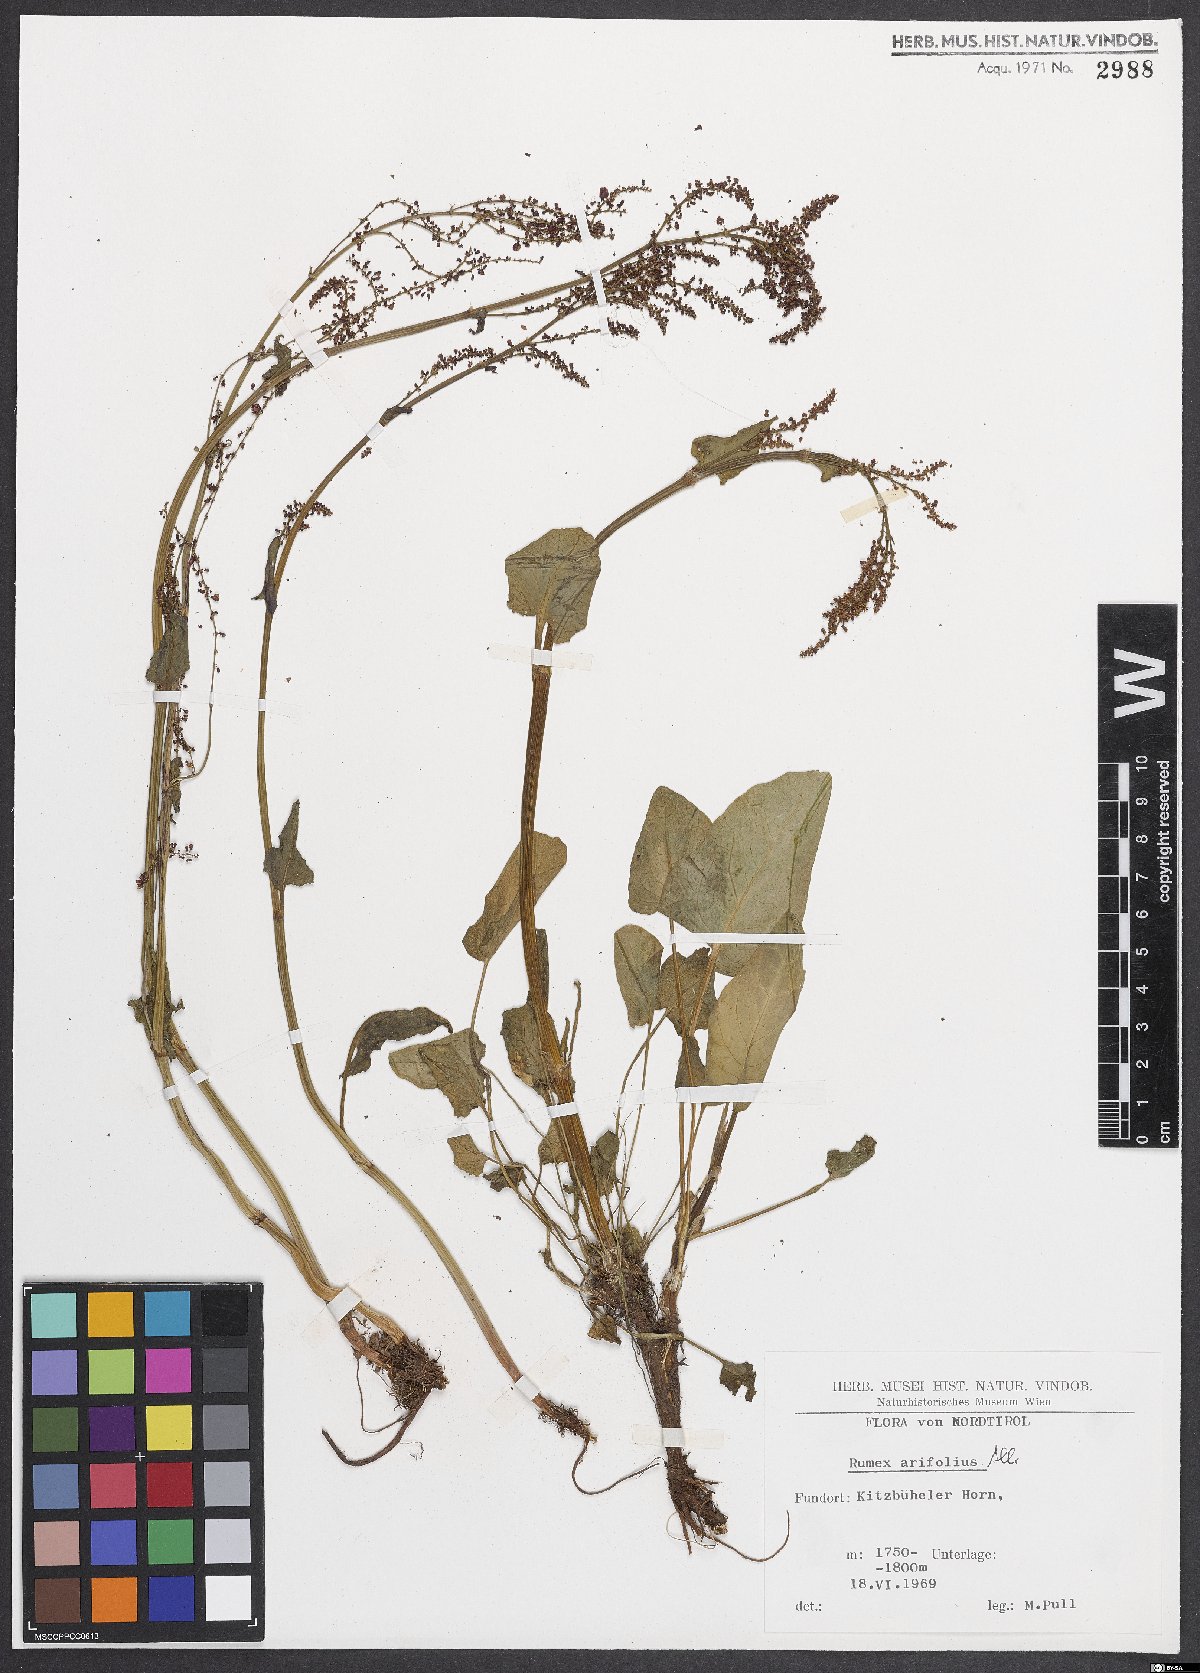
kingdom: Plantae
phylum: Tracheophyta
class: Magnoliopsida
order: Caryophyllales
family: Polygonaceae
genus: Rumex
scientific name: Rumex arifolius
